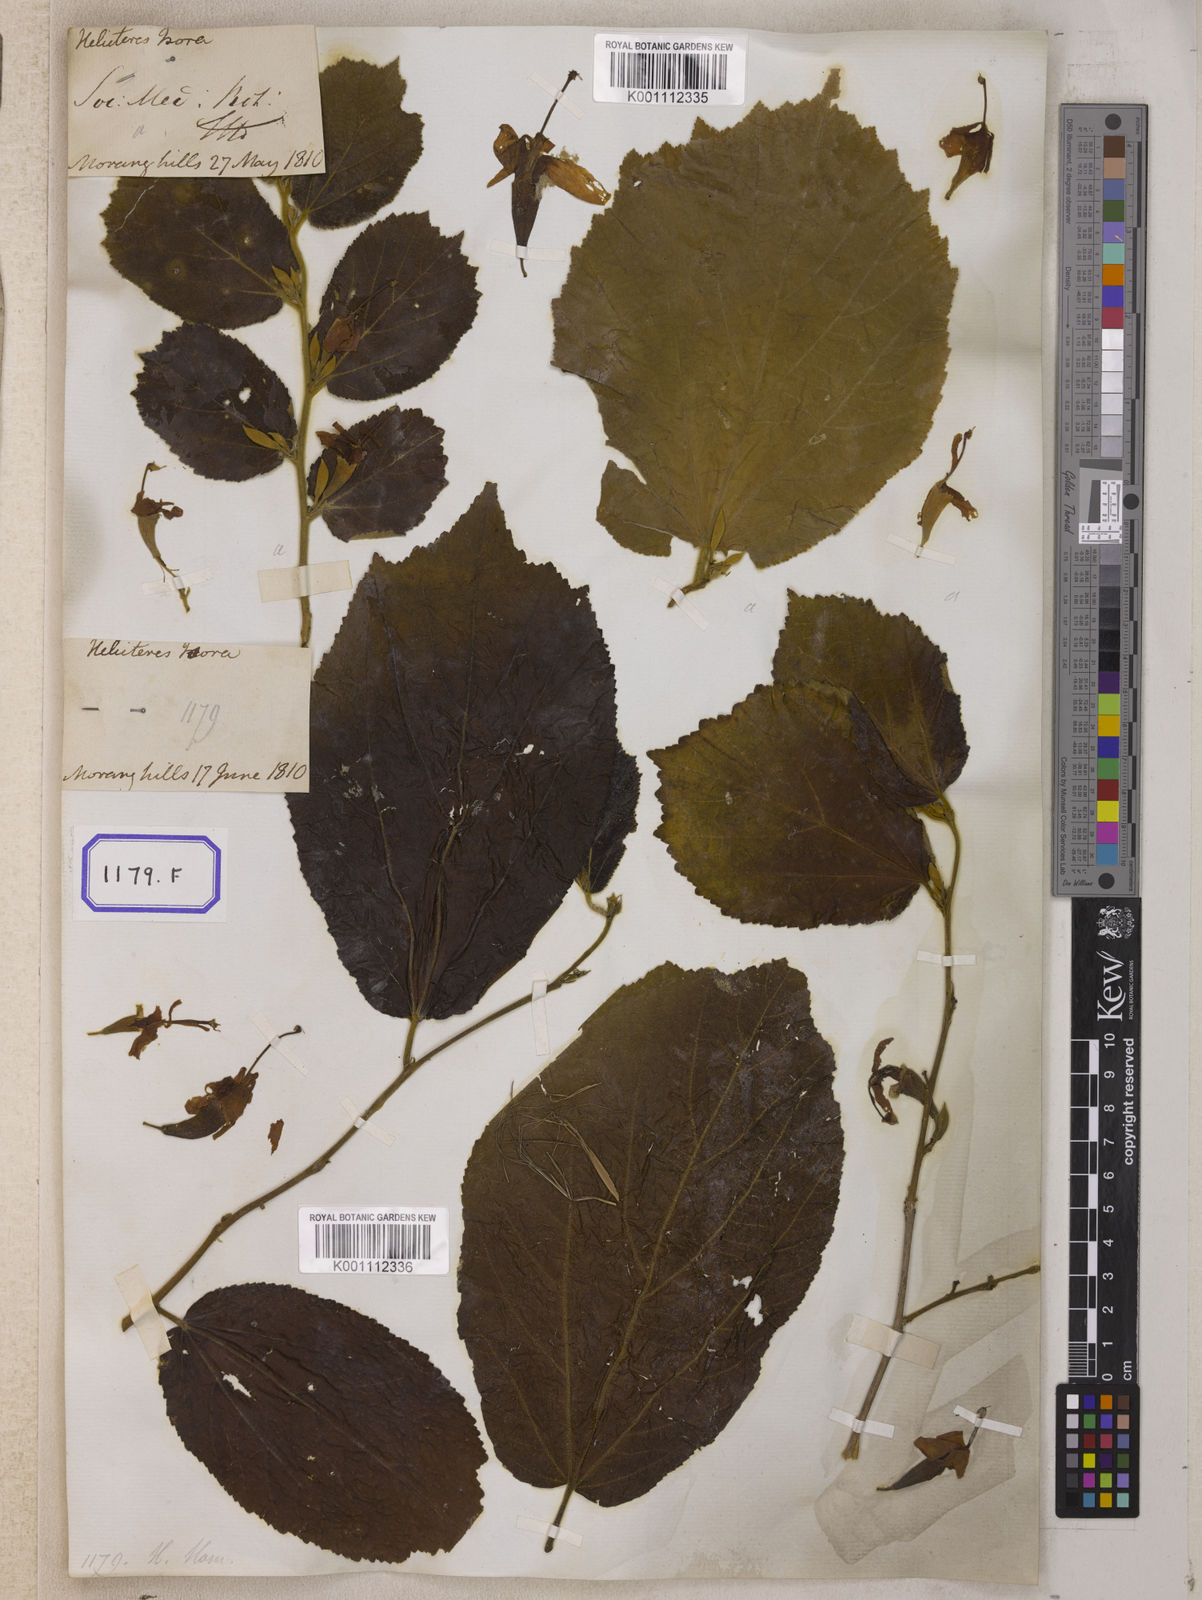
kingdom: Plantae
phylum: Tracheophyta
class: Magnoliopsida
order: Malvales
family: Malvaceae
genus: Helicteres
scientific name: Helicteres isora
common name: East indian screwtree
